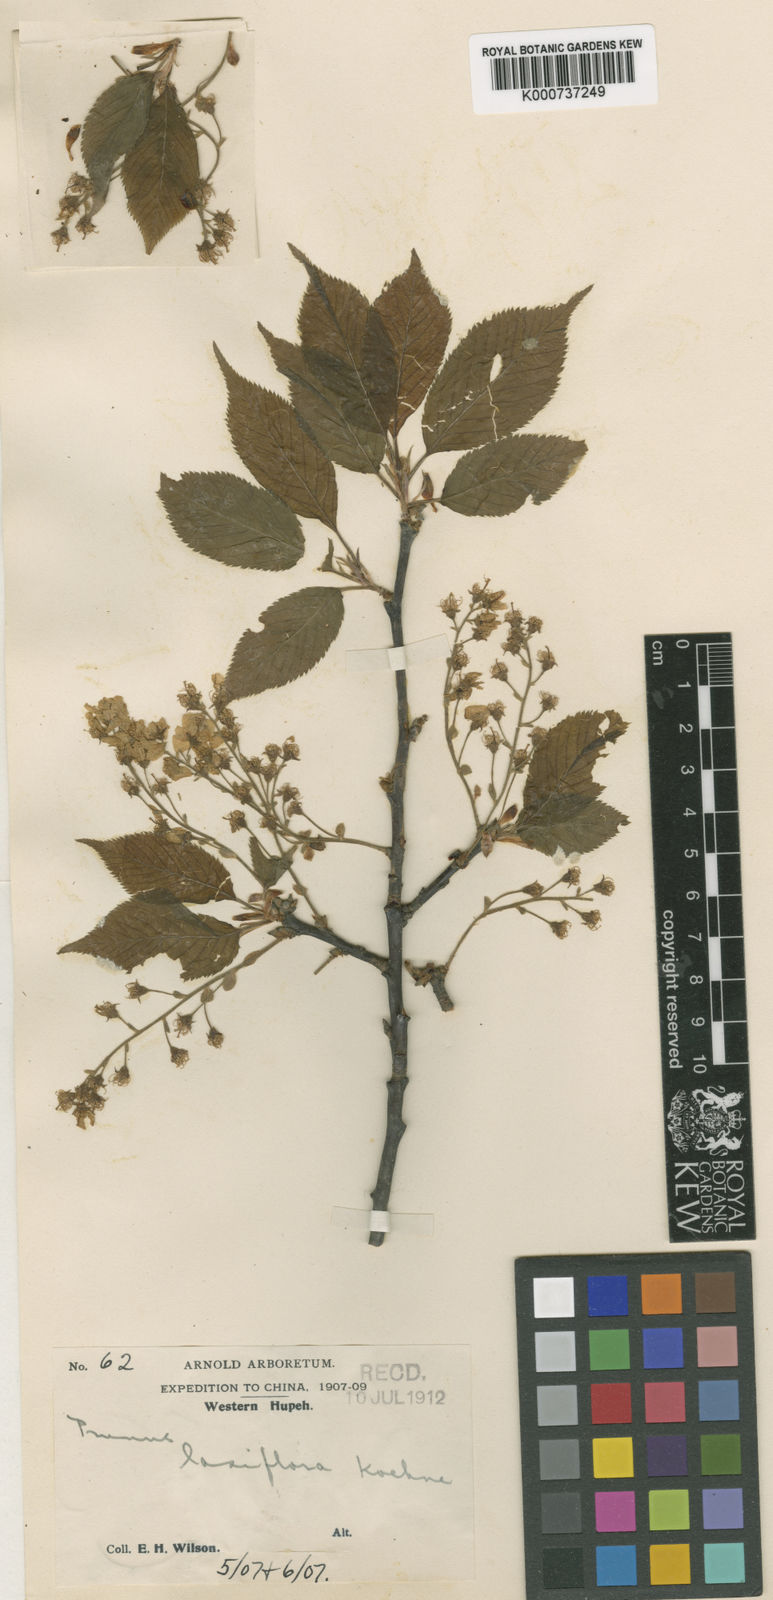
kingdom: Plantae
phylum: Tracheophyta
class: Magnoliopsida
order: Rosales
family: Rosaceae
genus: Prunus
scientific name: Prunus xingshanensis
